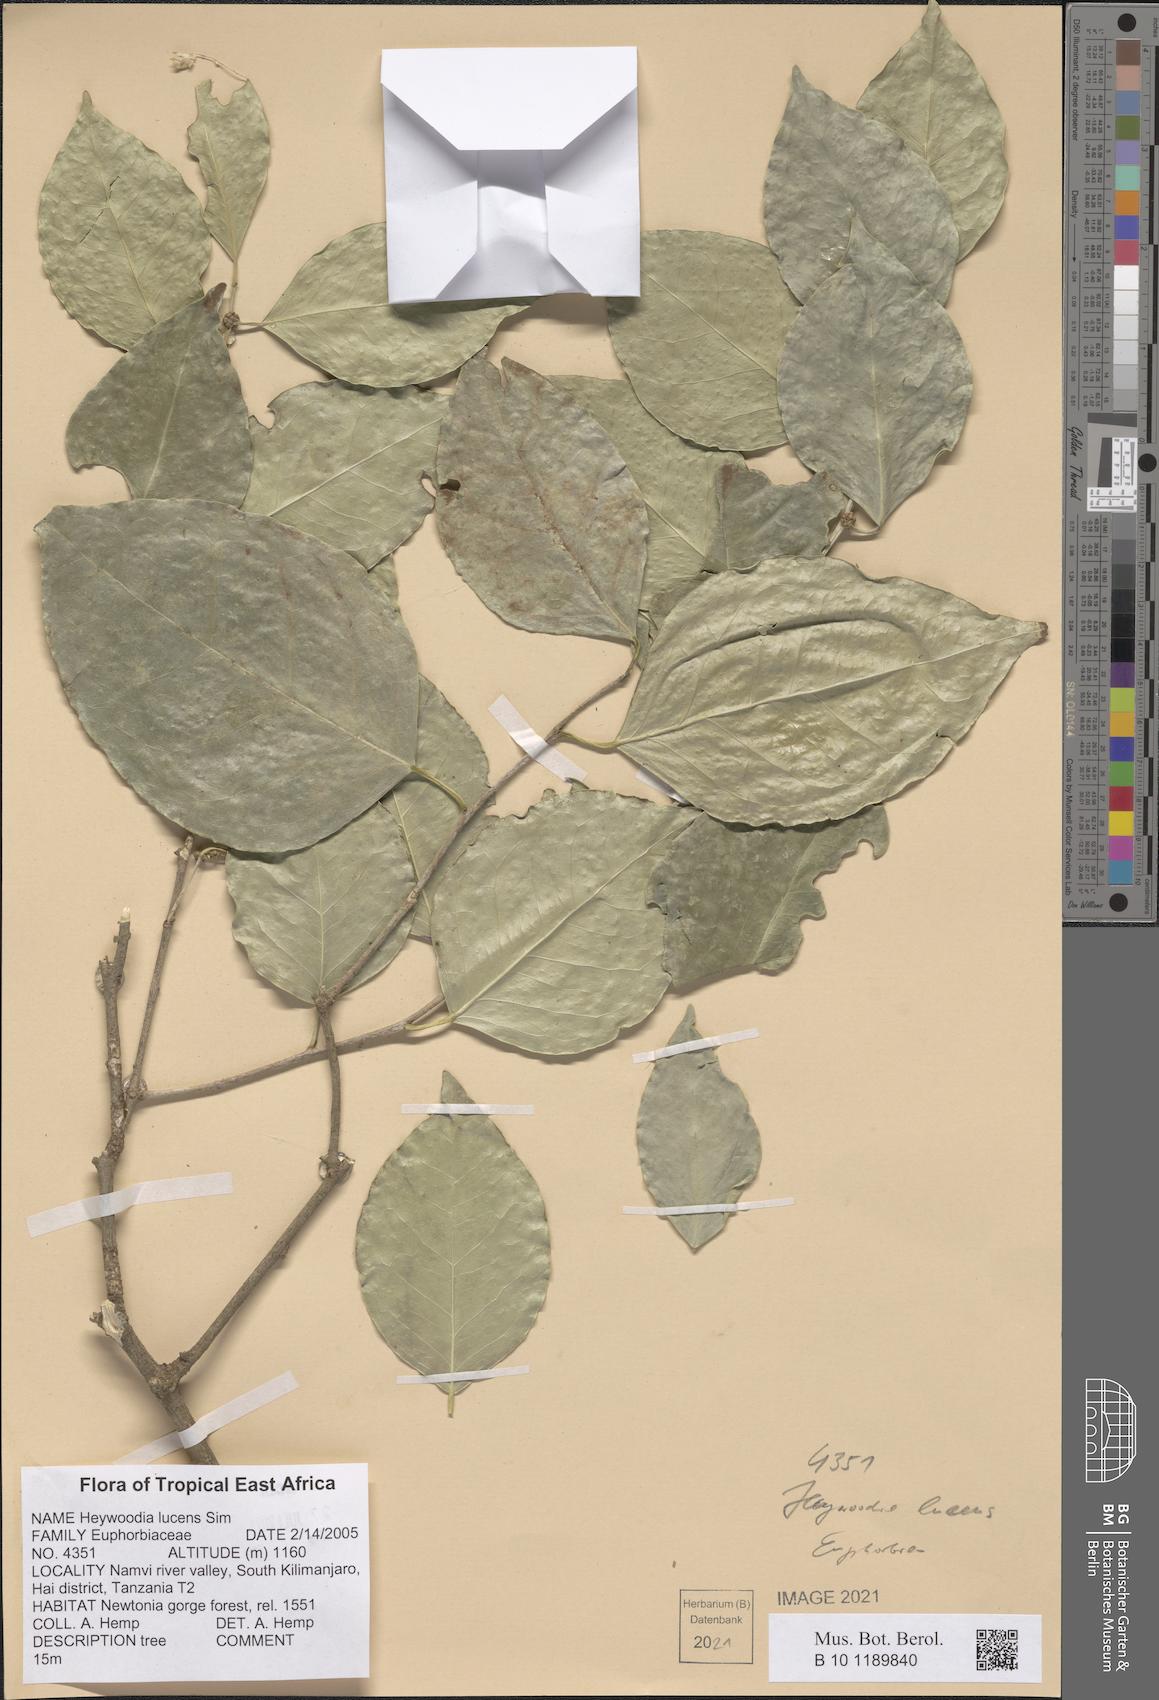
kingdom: Plantae
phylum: Tracheophyta
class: Magnoliopsida
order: Malpighiales
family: Phyllanthaceae
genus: Heywoodia
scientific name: Heywoodia lucens
